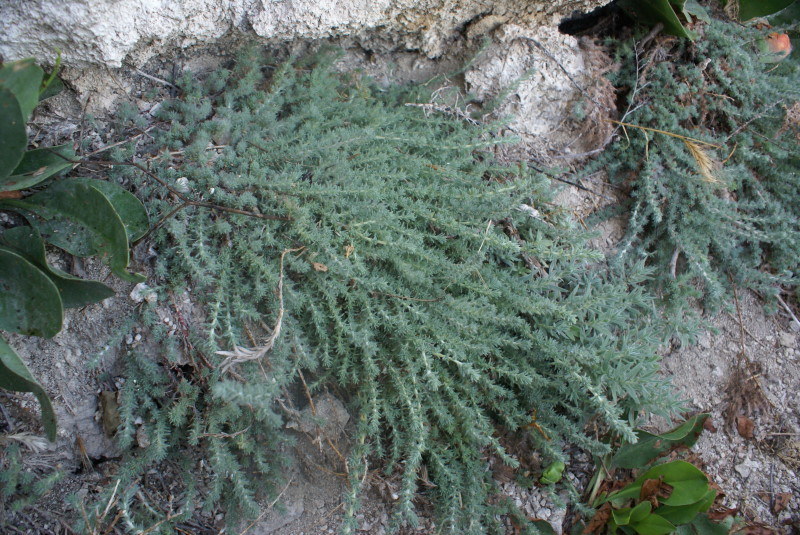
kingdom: Plantae
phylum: Tracheophyta
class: Magnoliopsida
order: Caryophyllales
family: Amaranthaceae
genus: Camphorosma
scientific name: Camphorosma monspeliaca
